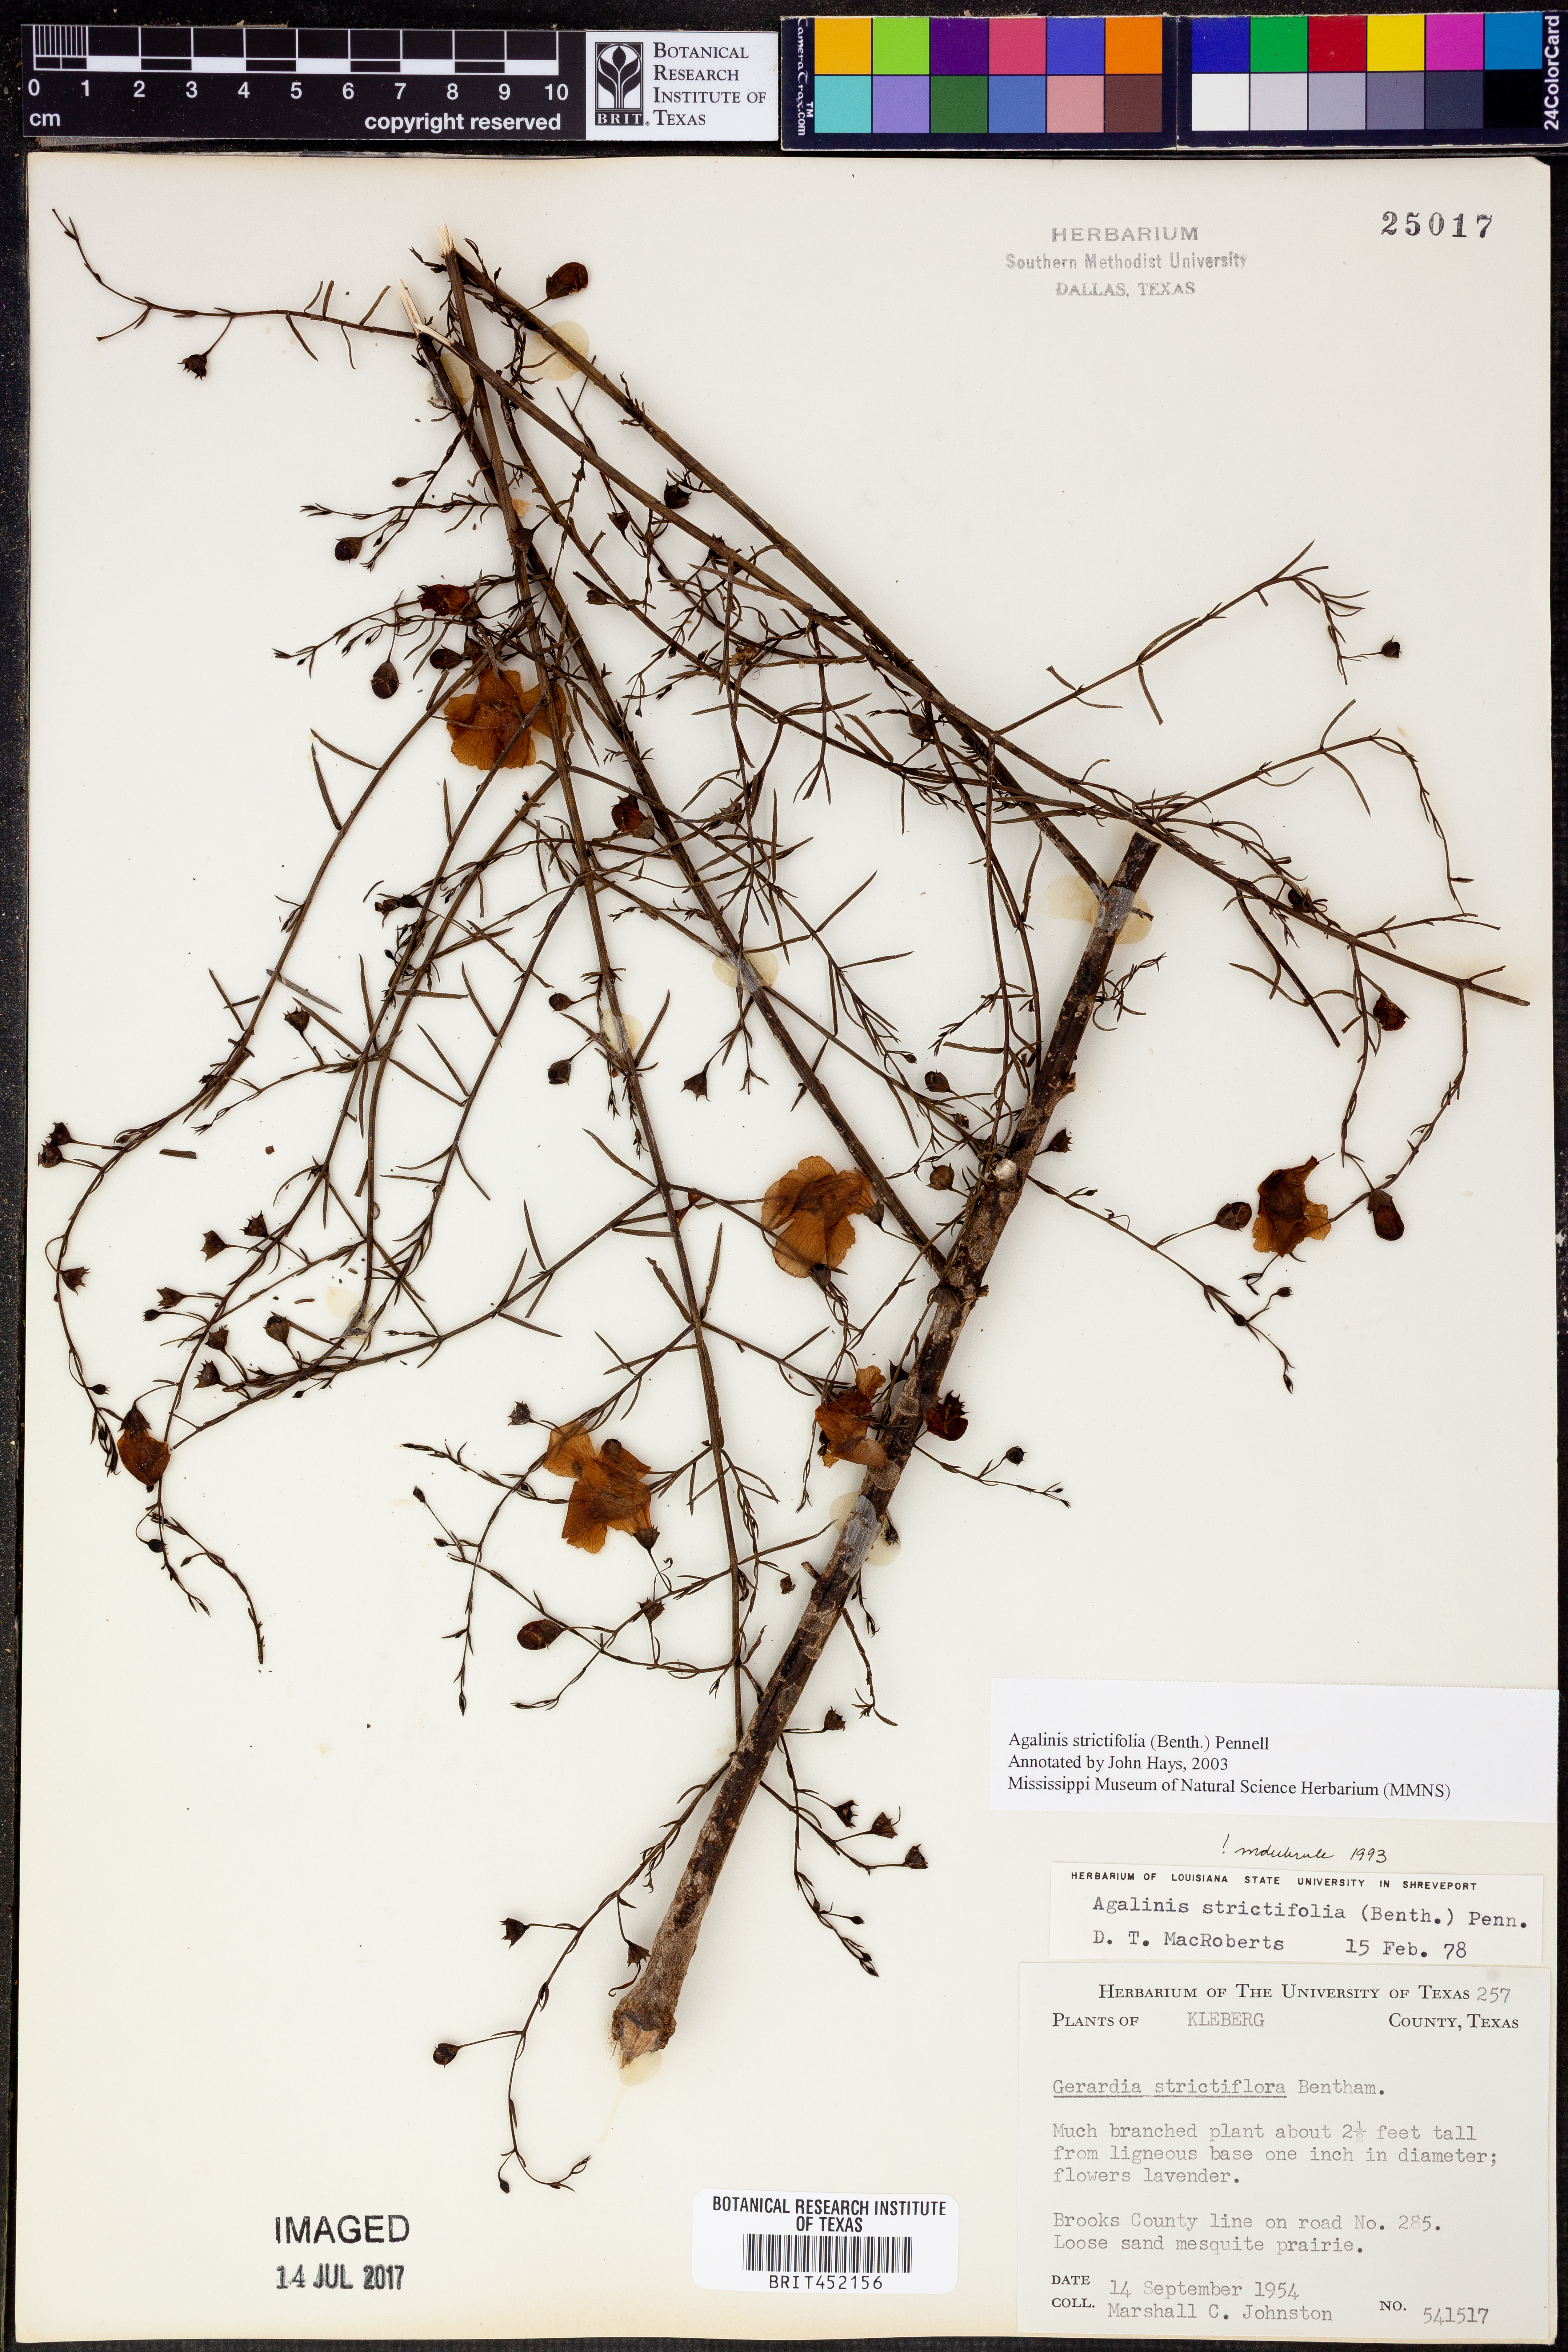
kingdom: Plantae
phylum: Tracheophyta
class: Magnoliopsida
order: Lamiales
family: Orobanchaceae
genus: Agalinis
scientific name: Agalinis strictifolia
